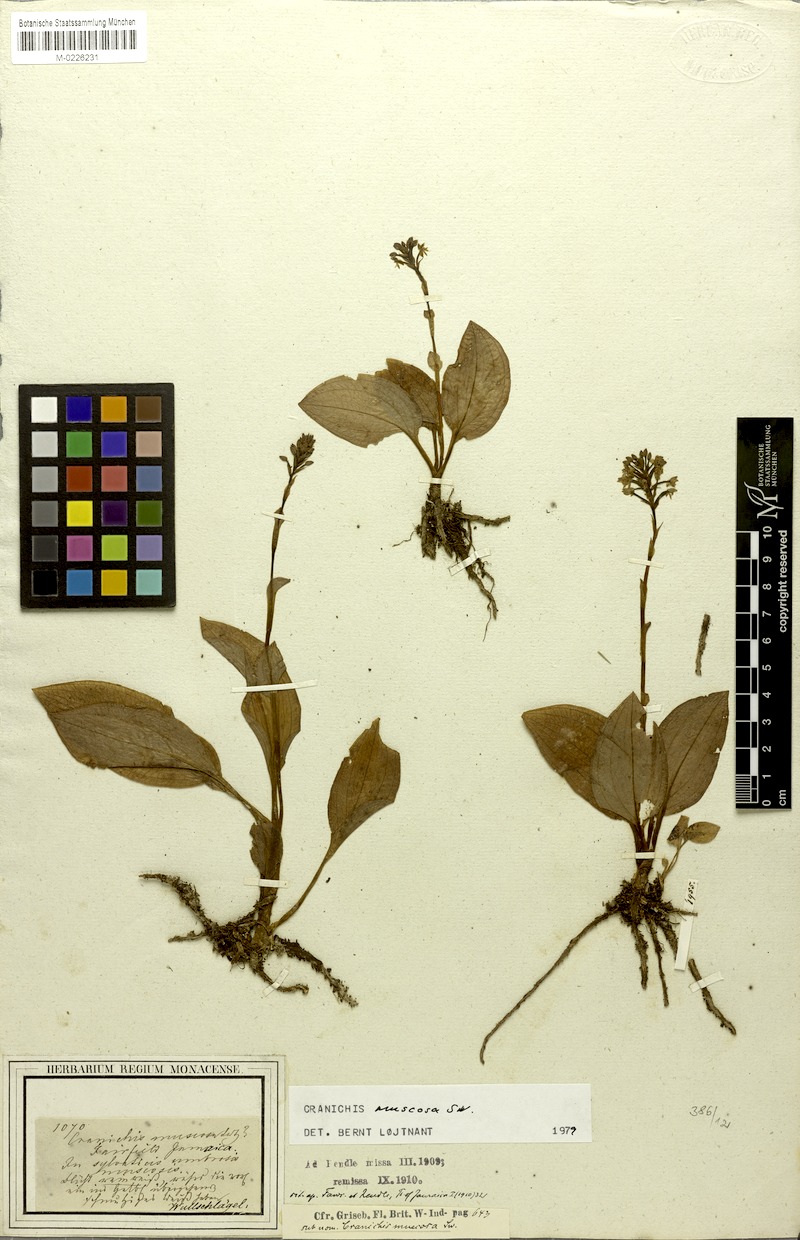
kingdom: Plantae
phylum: Tracheophyta
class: Liliopsida
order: Asparagales
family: Orchidaceae
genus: Cranichis
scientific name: Cranichis muscosa
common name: Cypress-knee helmet orchid
